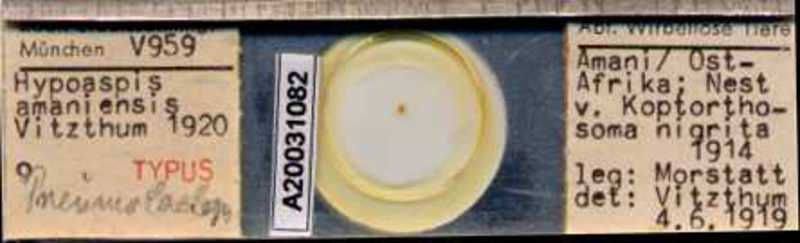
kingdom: Animalia
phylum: Arthropoda
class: Arachnida
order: Mesostigmata
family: Laelapidae
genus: Pneumolaelaps
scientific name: Pneumolaelaps
